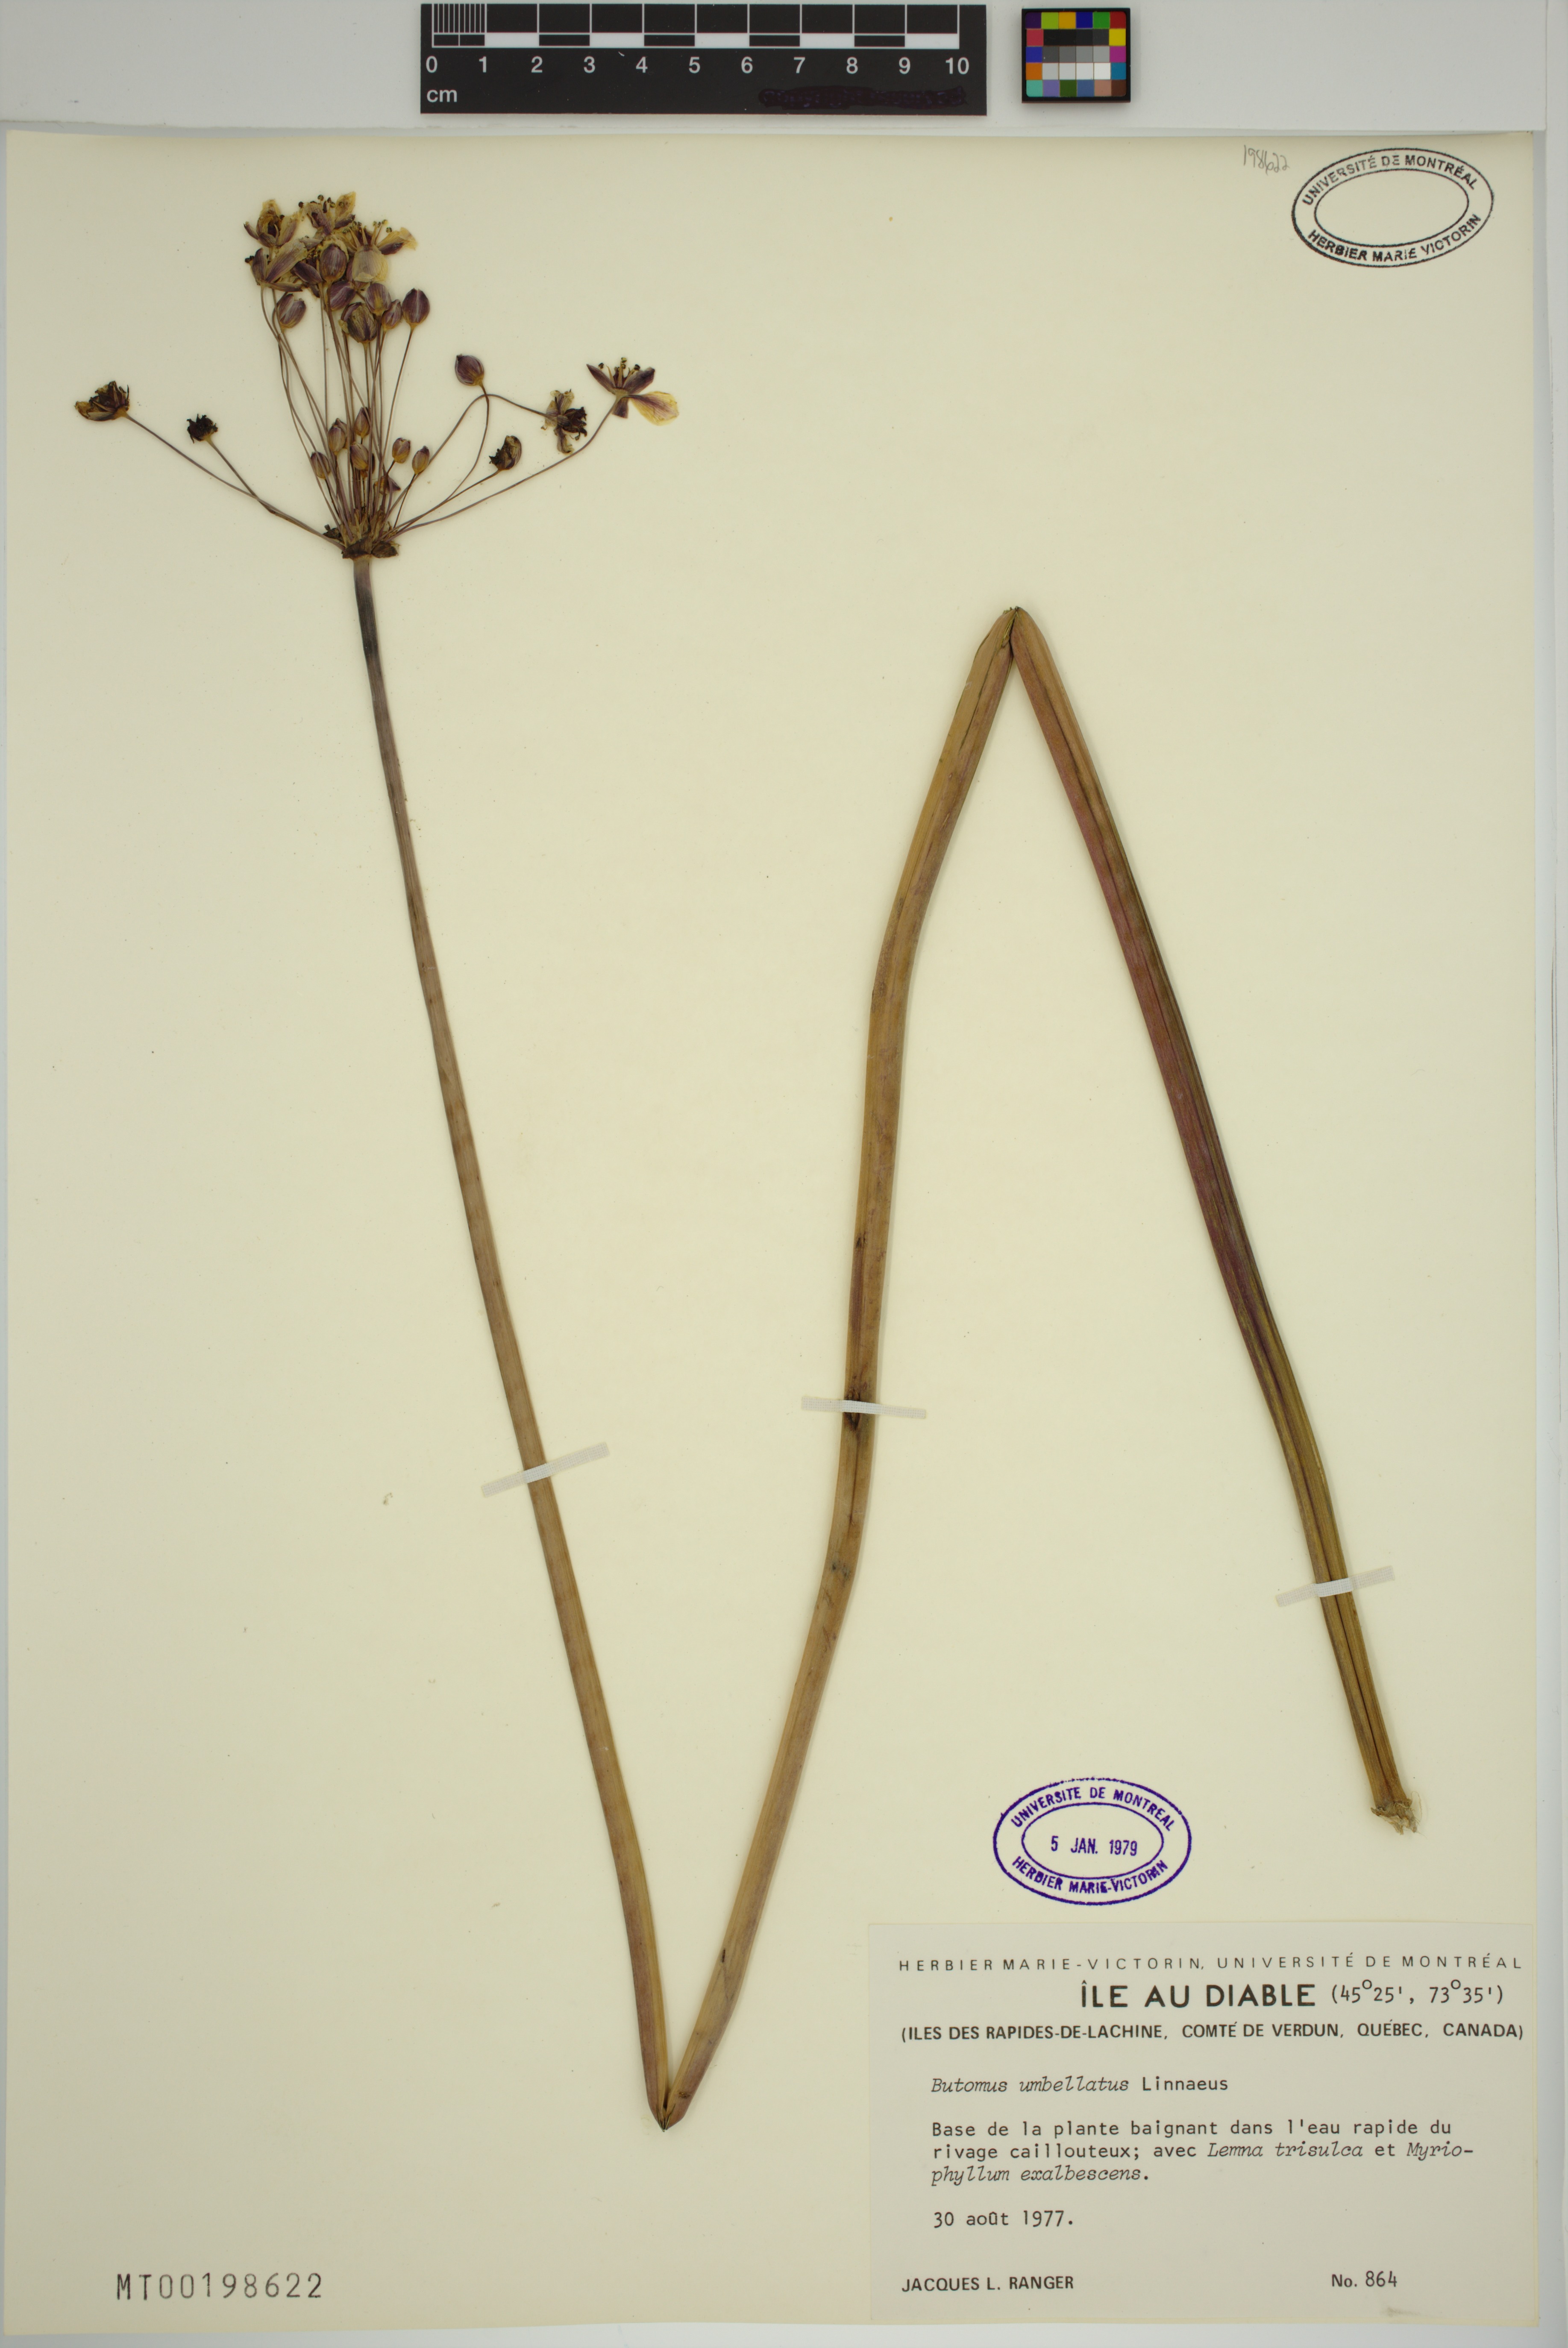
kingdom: Plantae
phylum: Tracheophyta
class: Liliopsida
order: Alismatales
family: Butomaceae
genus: Butomus
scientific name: Butomus umbellatus
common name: Flowering-rush
